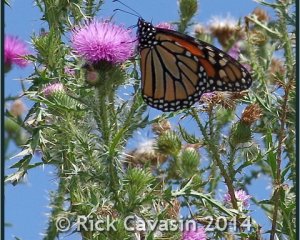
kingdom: Animalia
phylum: Arthropoda
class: Insecta
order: Lepidoptera
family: Nymphalidae
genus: Danaus
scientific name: Danaus plexippus
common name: Monarch
